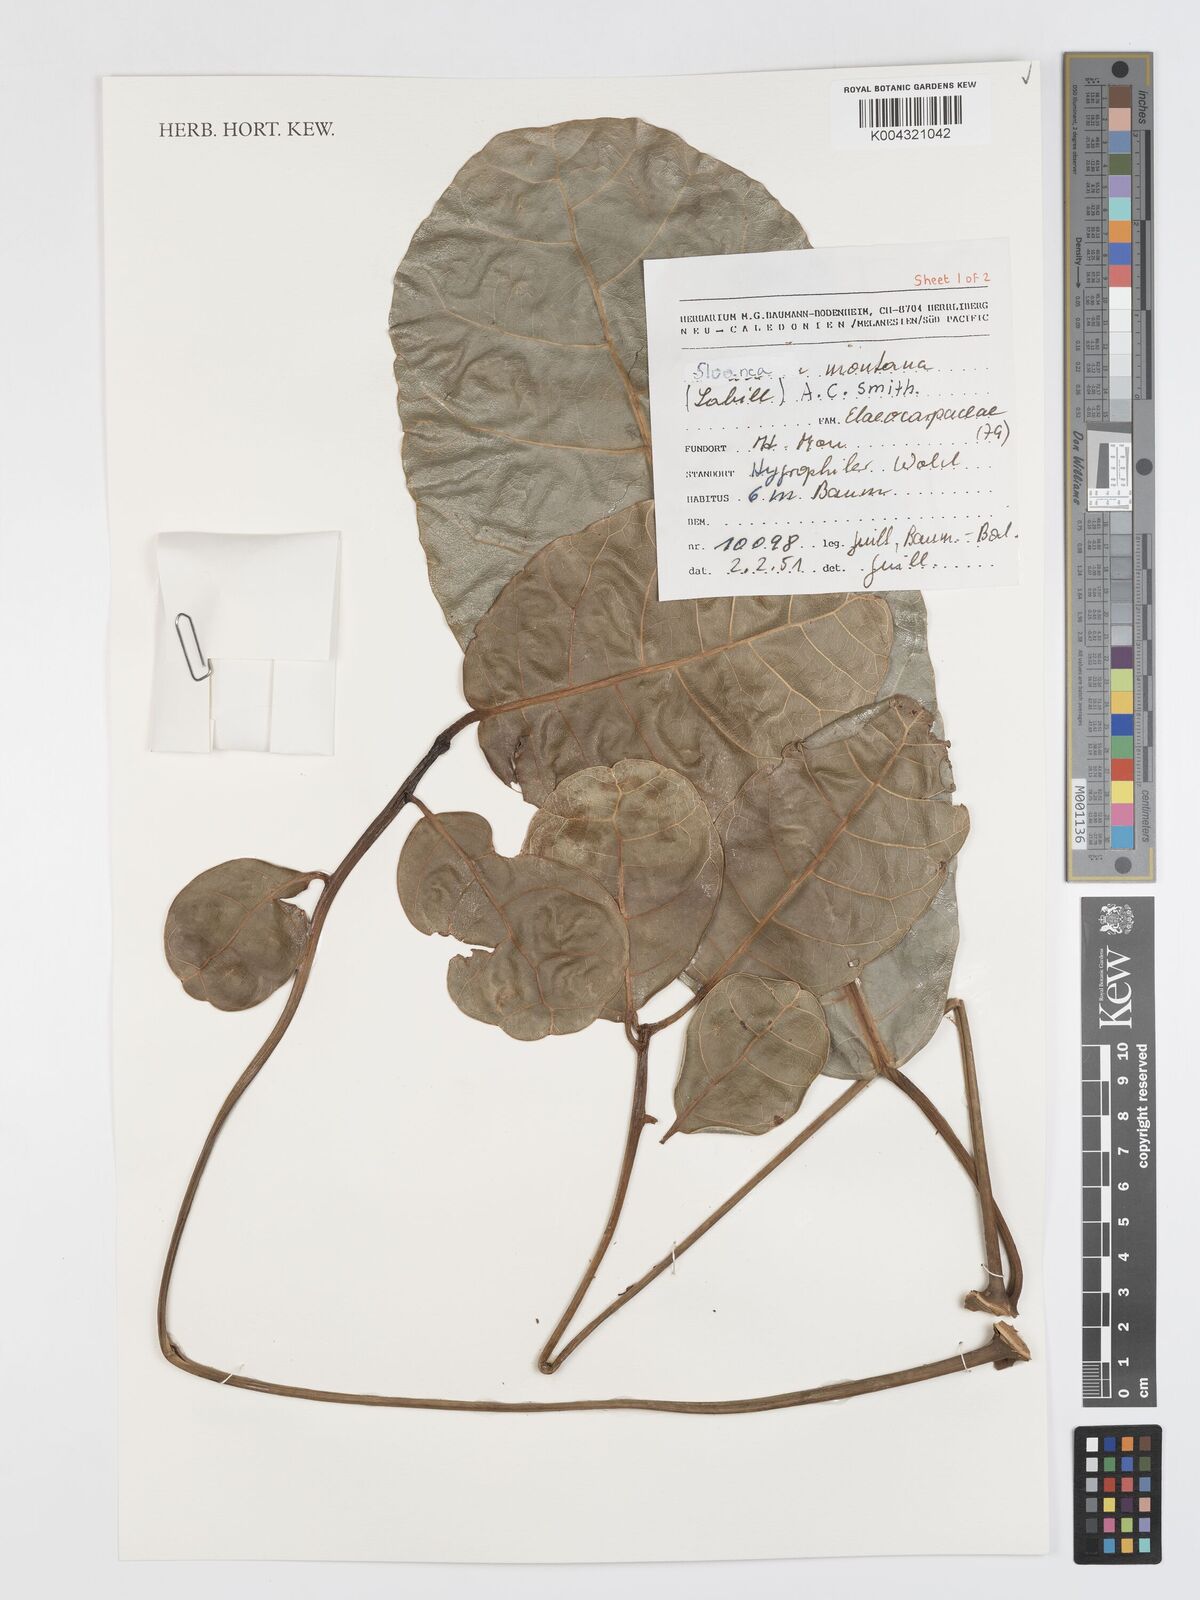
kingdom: Plantae
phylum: Tracheophyta
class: Magnoliopsida
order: Oxalidales
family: Elaeocarpaceae
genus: Sloanea
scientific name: Sloanea montana
